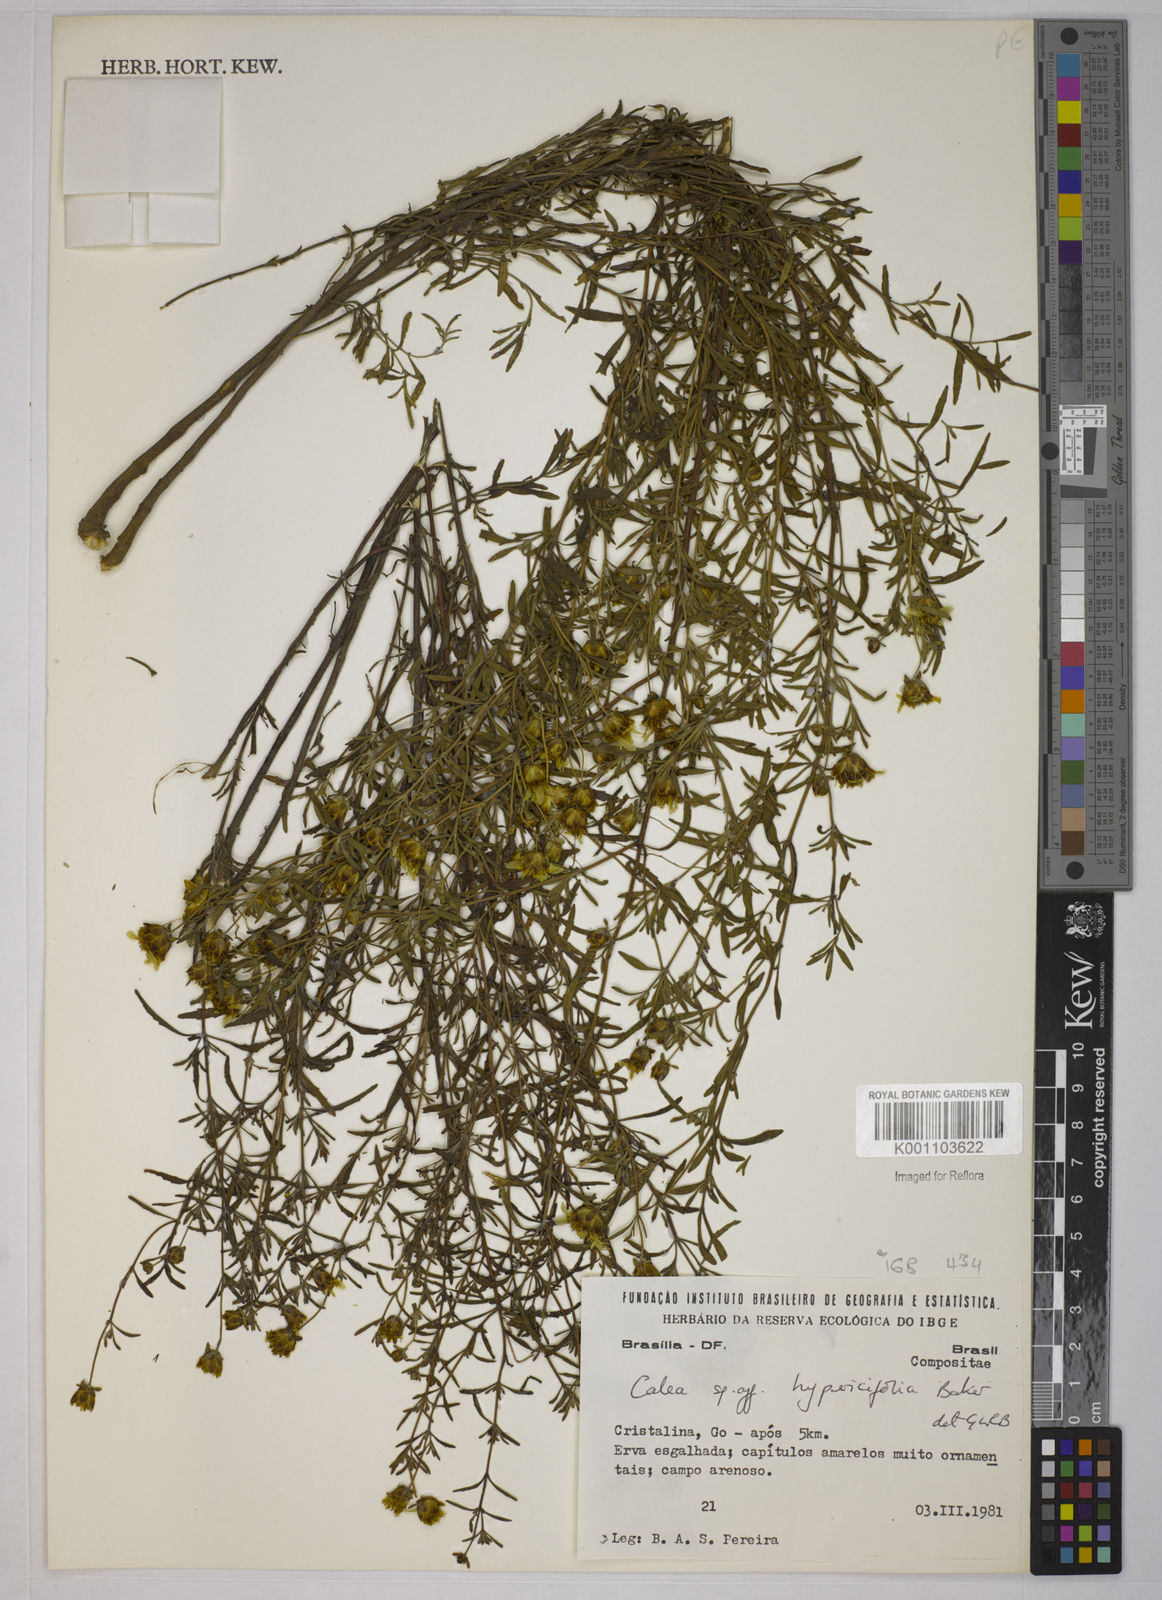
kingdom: Plantae
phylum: Tracheophyta
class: Magnoliopsida
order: Asterales
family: Asteraceae
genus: Calea
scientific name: Calea hypericifolia
